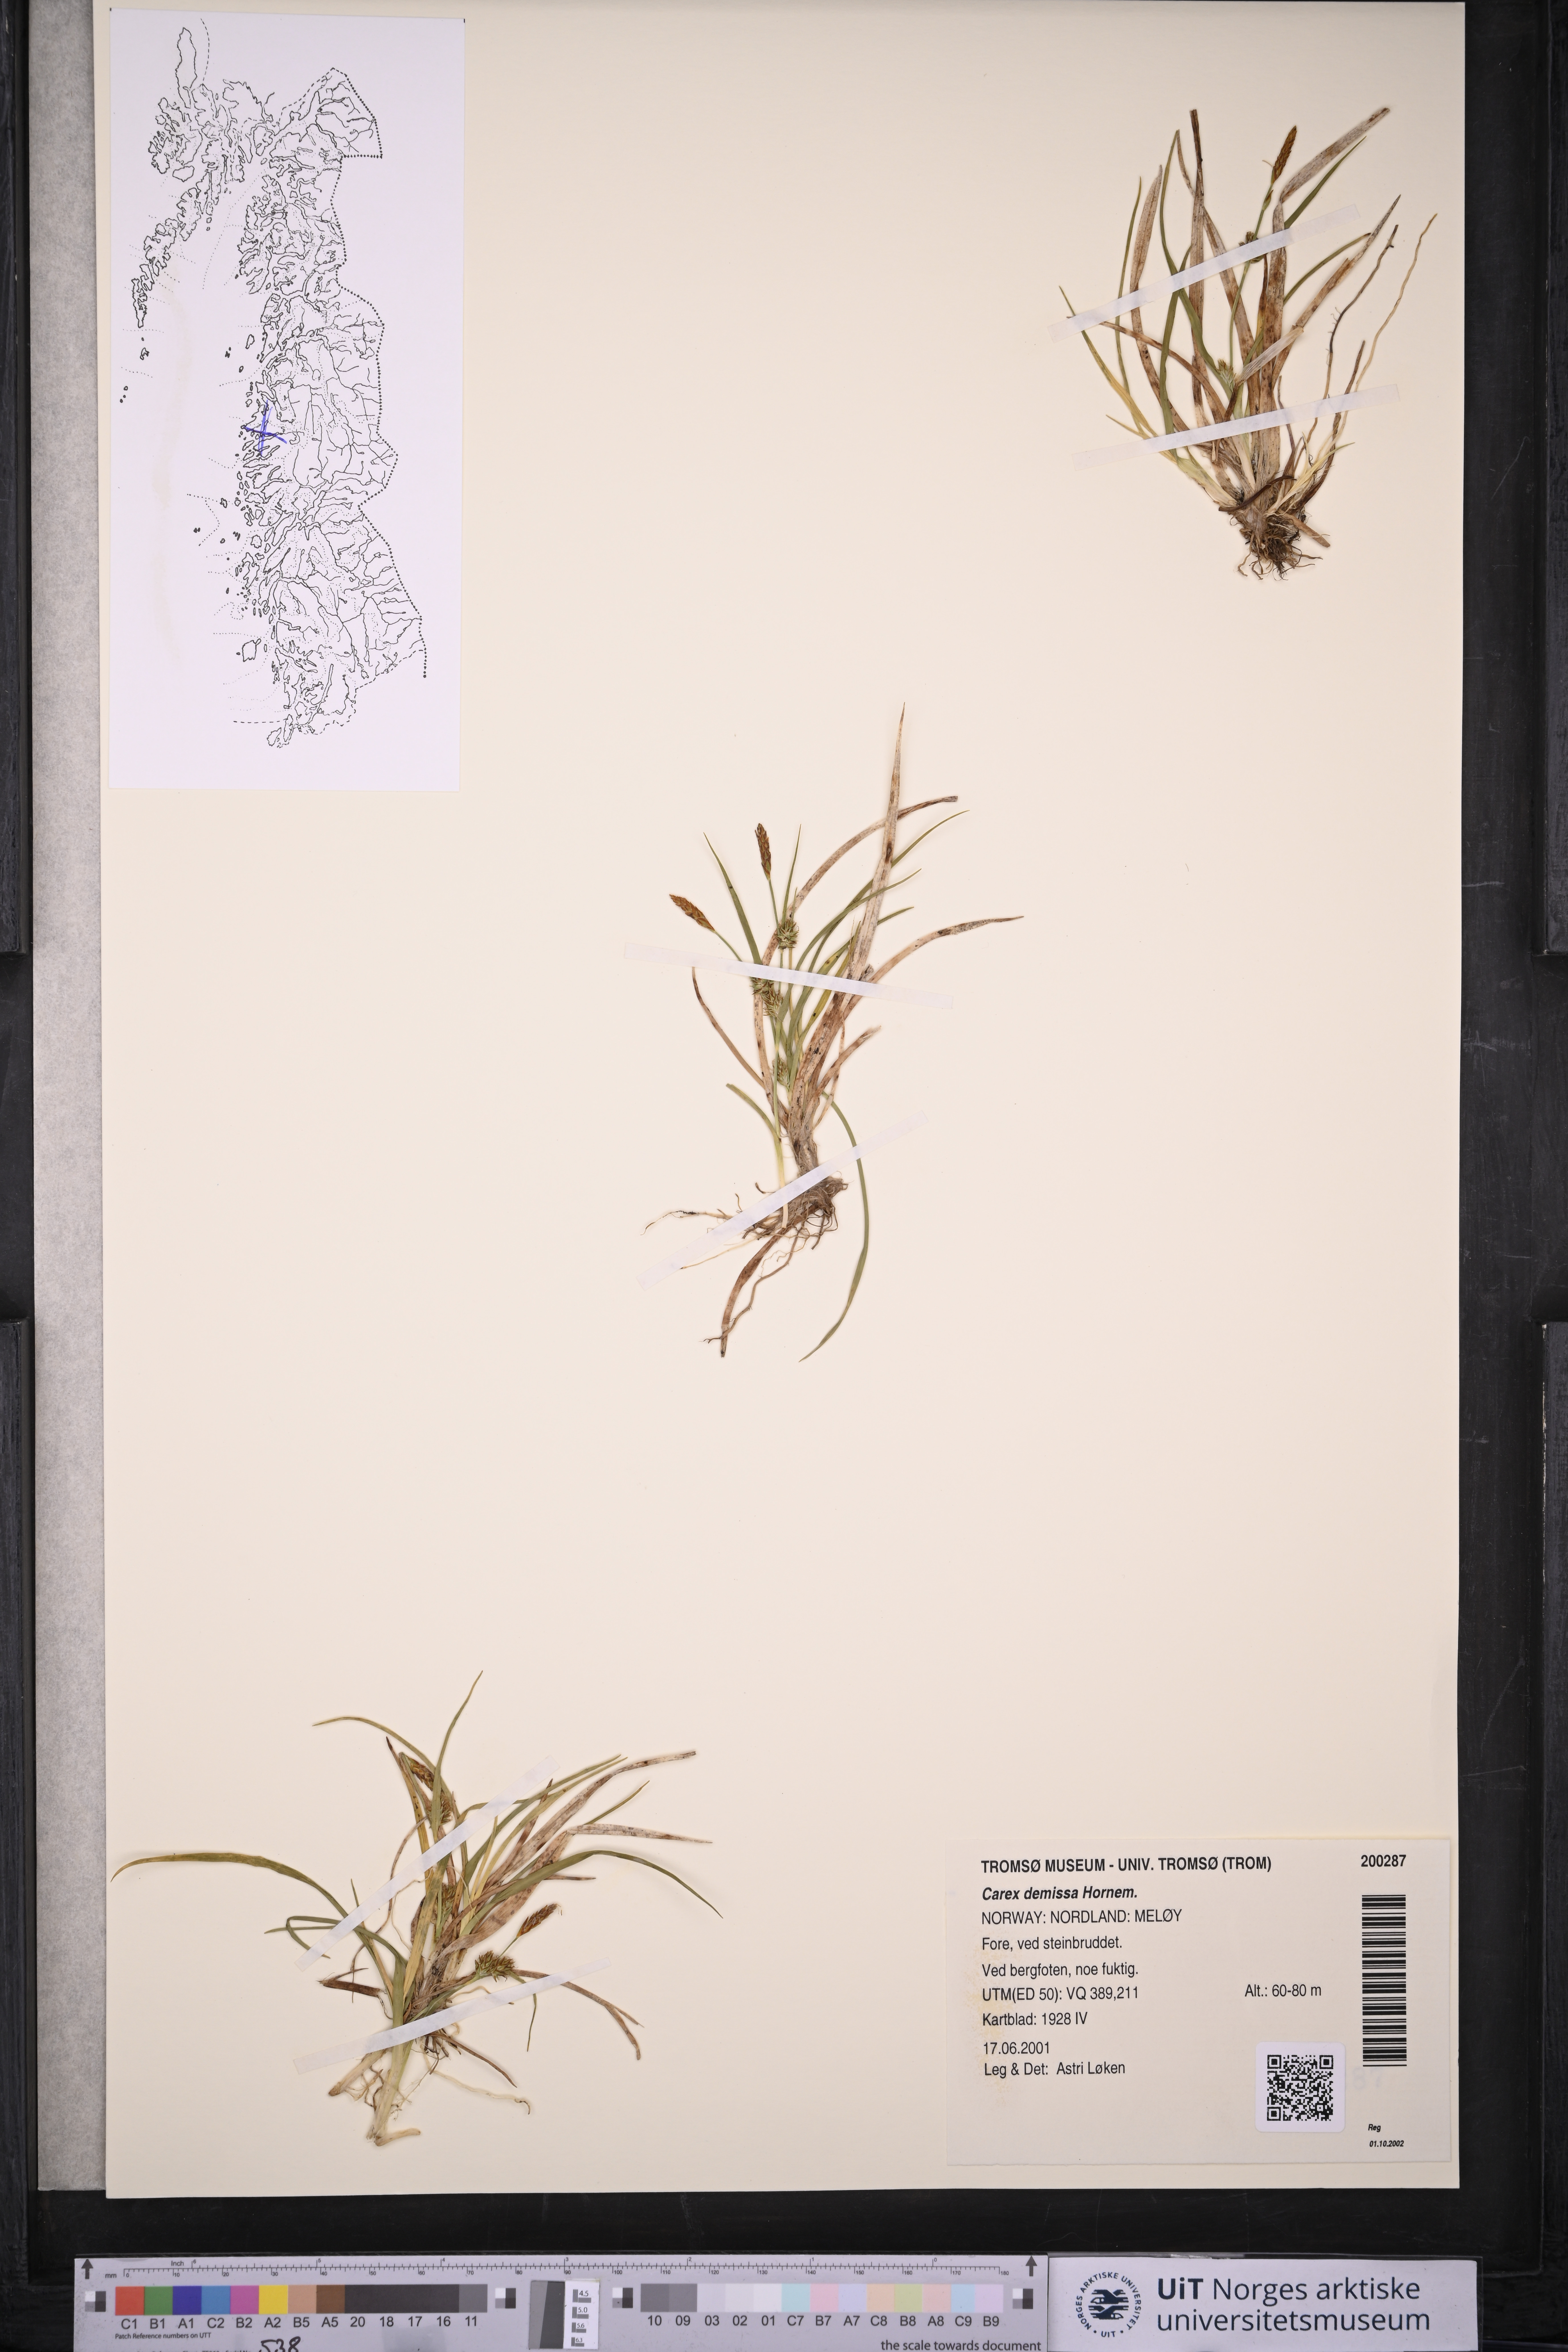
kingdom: Plantae
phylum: Tracheophyta
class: Liliopsida
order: Poales
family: Cyperaceae
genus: Carex
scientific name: Carex demissa
